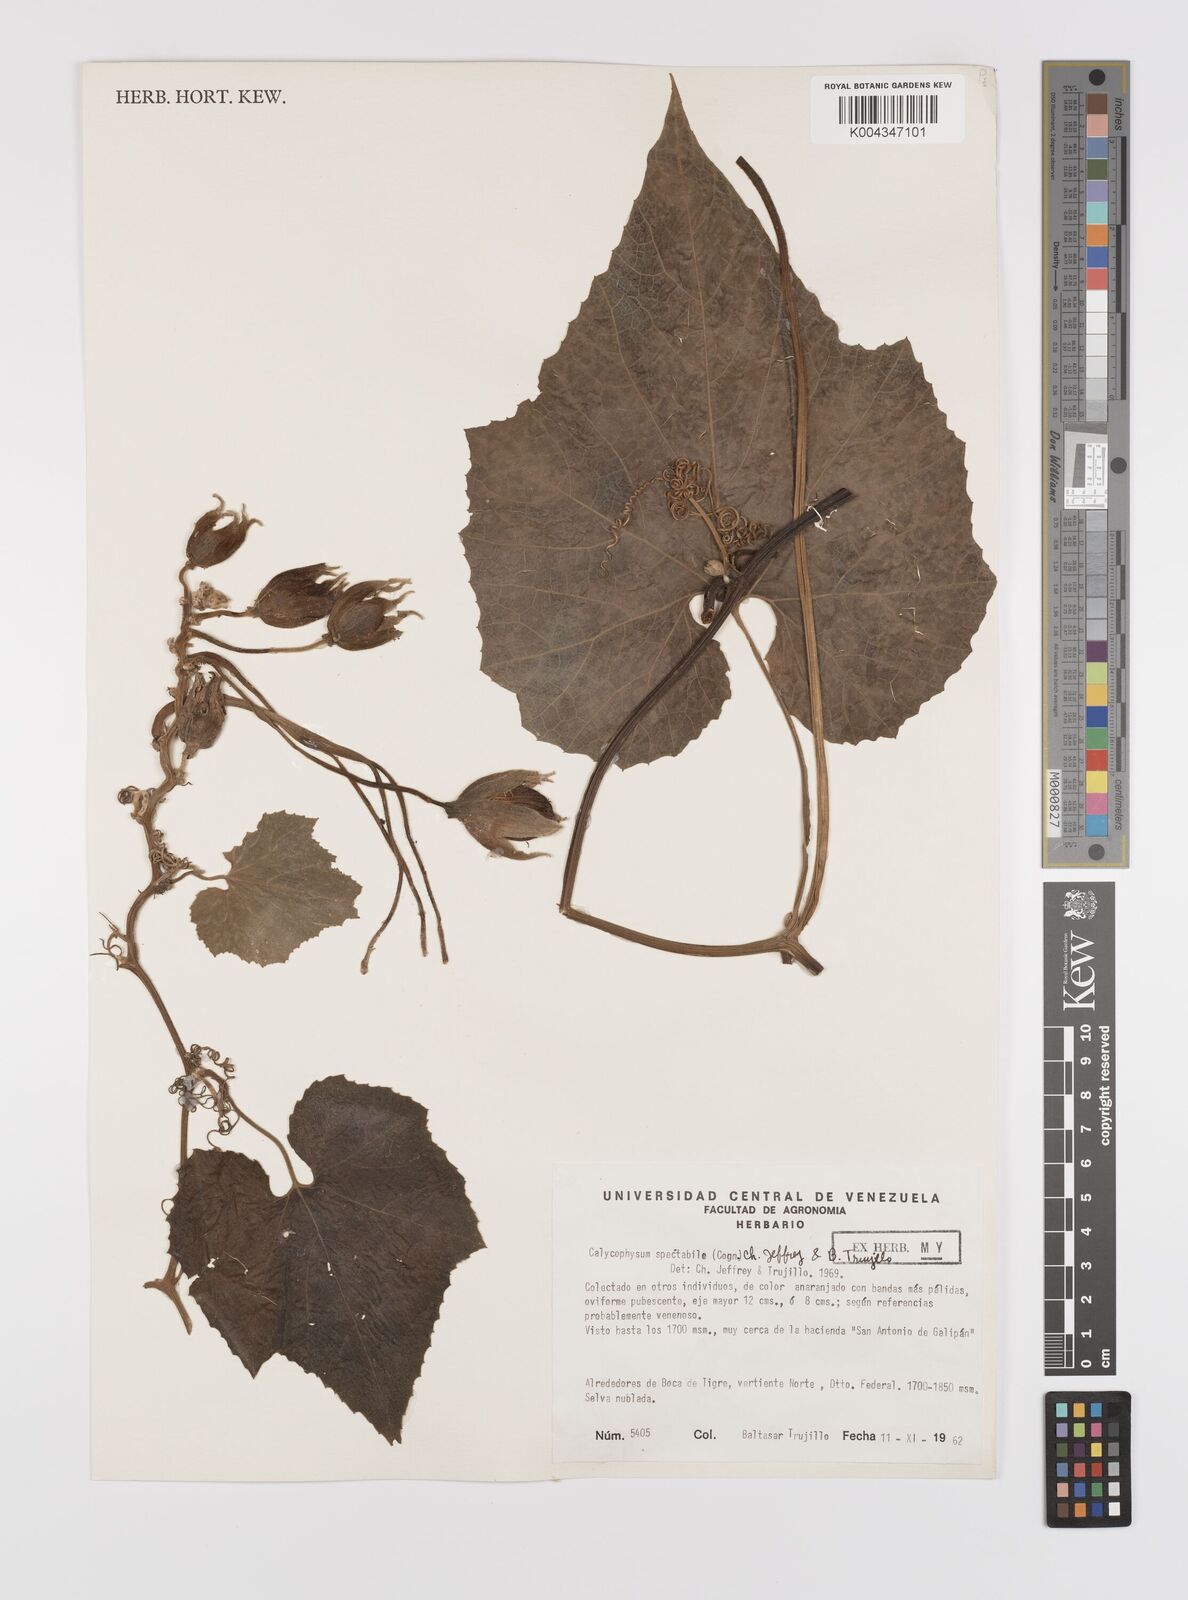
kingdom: Plantae
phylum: Tracheophyta
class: Magnoliopsida
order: Cucurbitales
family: Cucurbitaceae
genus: Calycophysum
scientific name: Calycophysum spectabile
